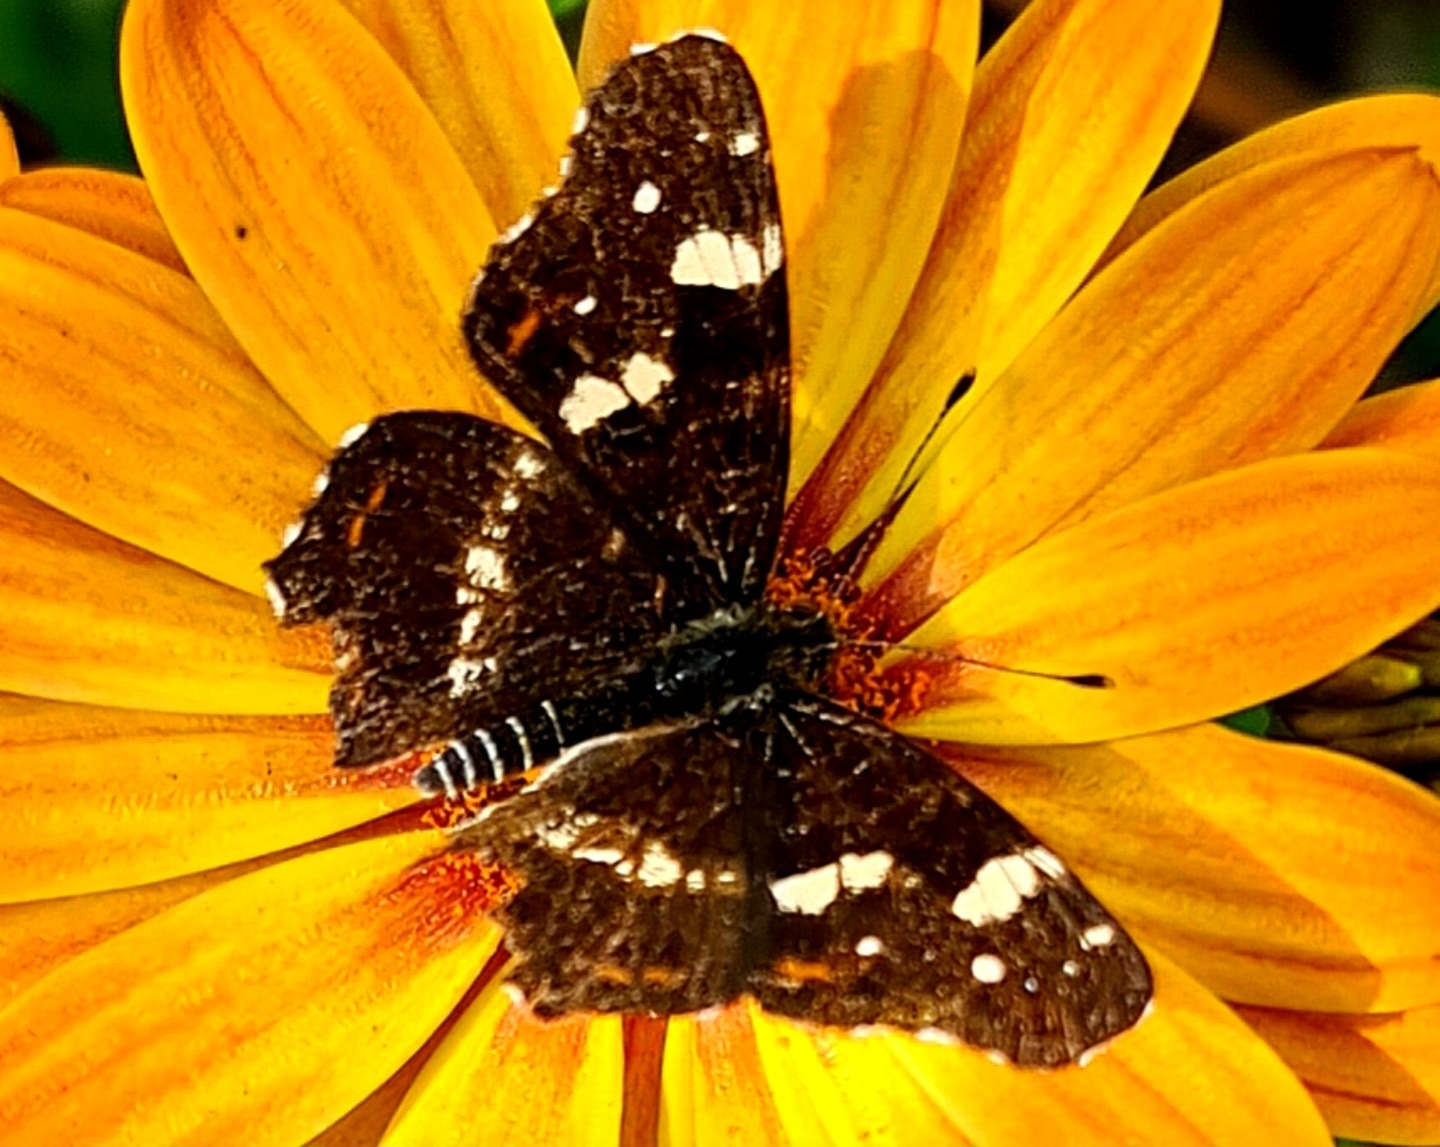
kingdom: Animalia
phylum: Arthropoda
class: Insecta
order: Lepidoptera
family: Nymphalidae
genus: Araschnia
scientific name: Araschnia levana
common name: Nældesommerfugl
